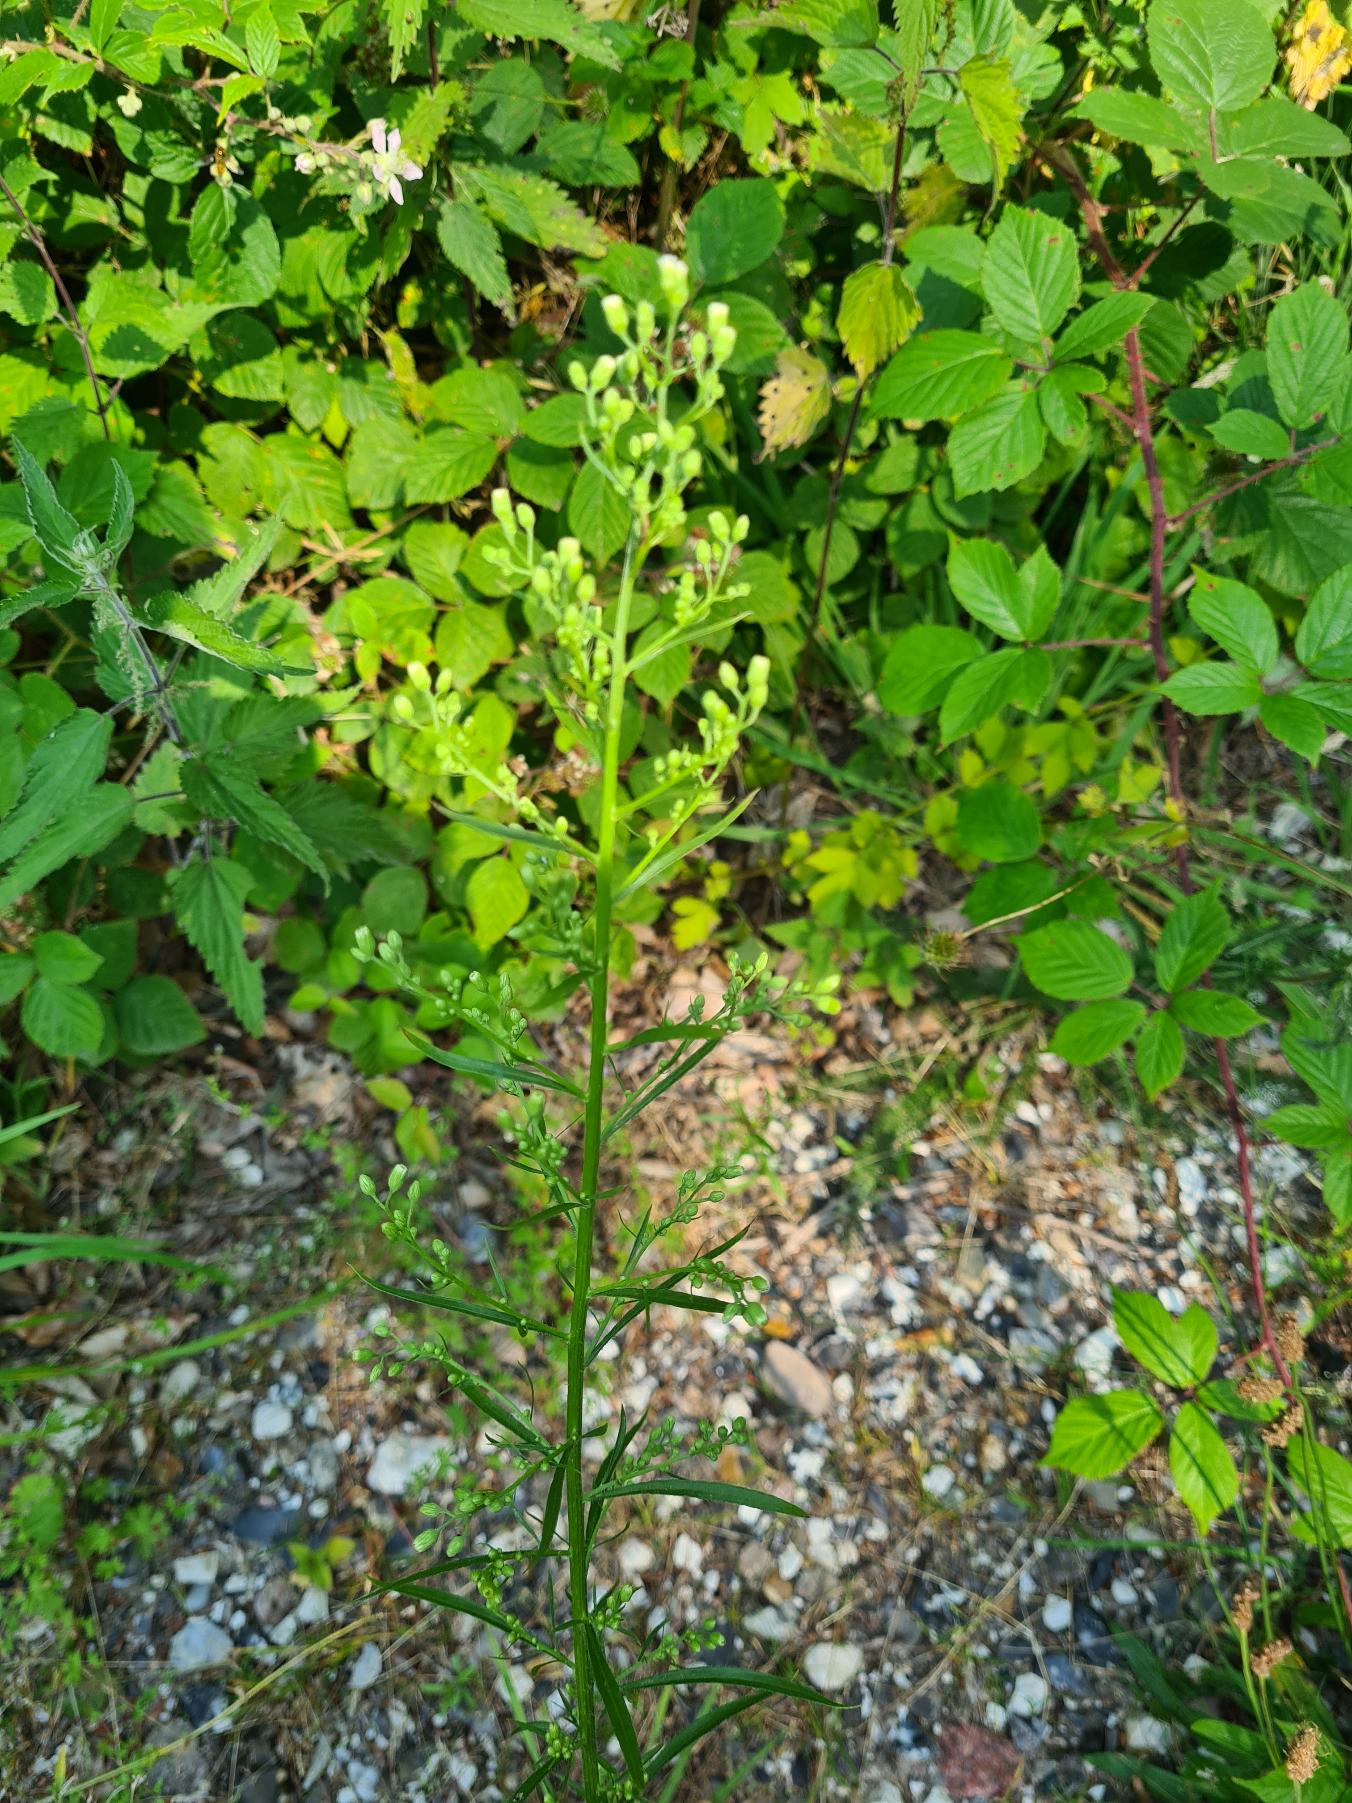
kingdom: Plantae
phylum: Tracheophyta
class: Magnoliopsida
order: Asterales
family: Asteraceae
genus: Erigeron
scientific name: Erigeron canadensis
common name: Kanadisk bakkestjerne
